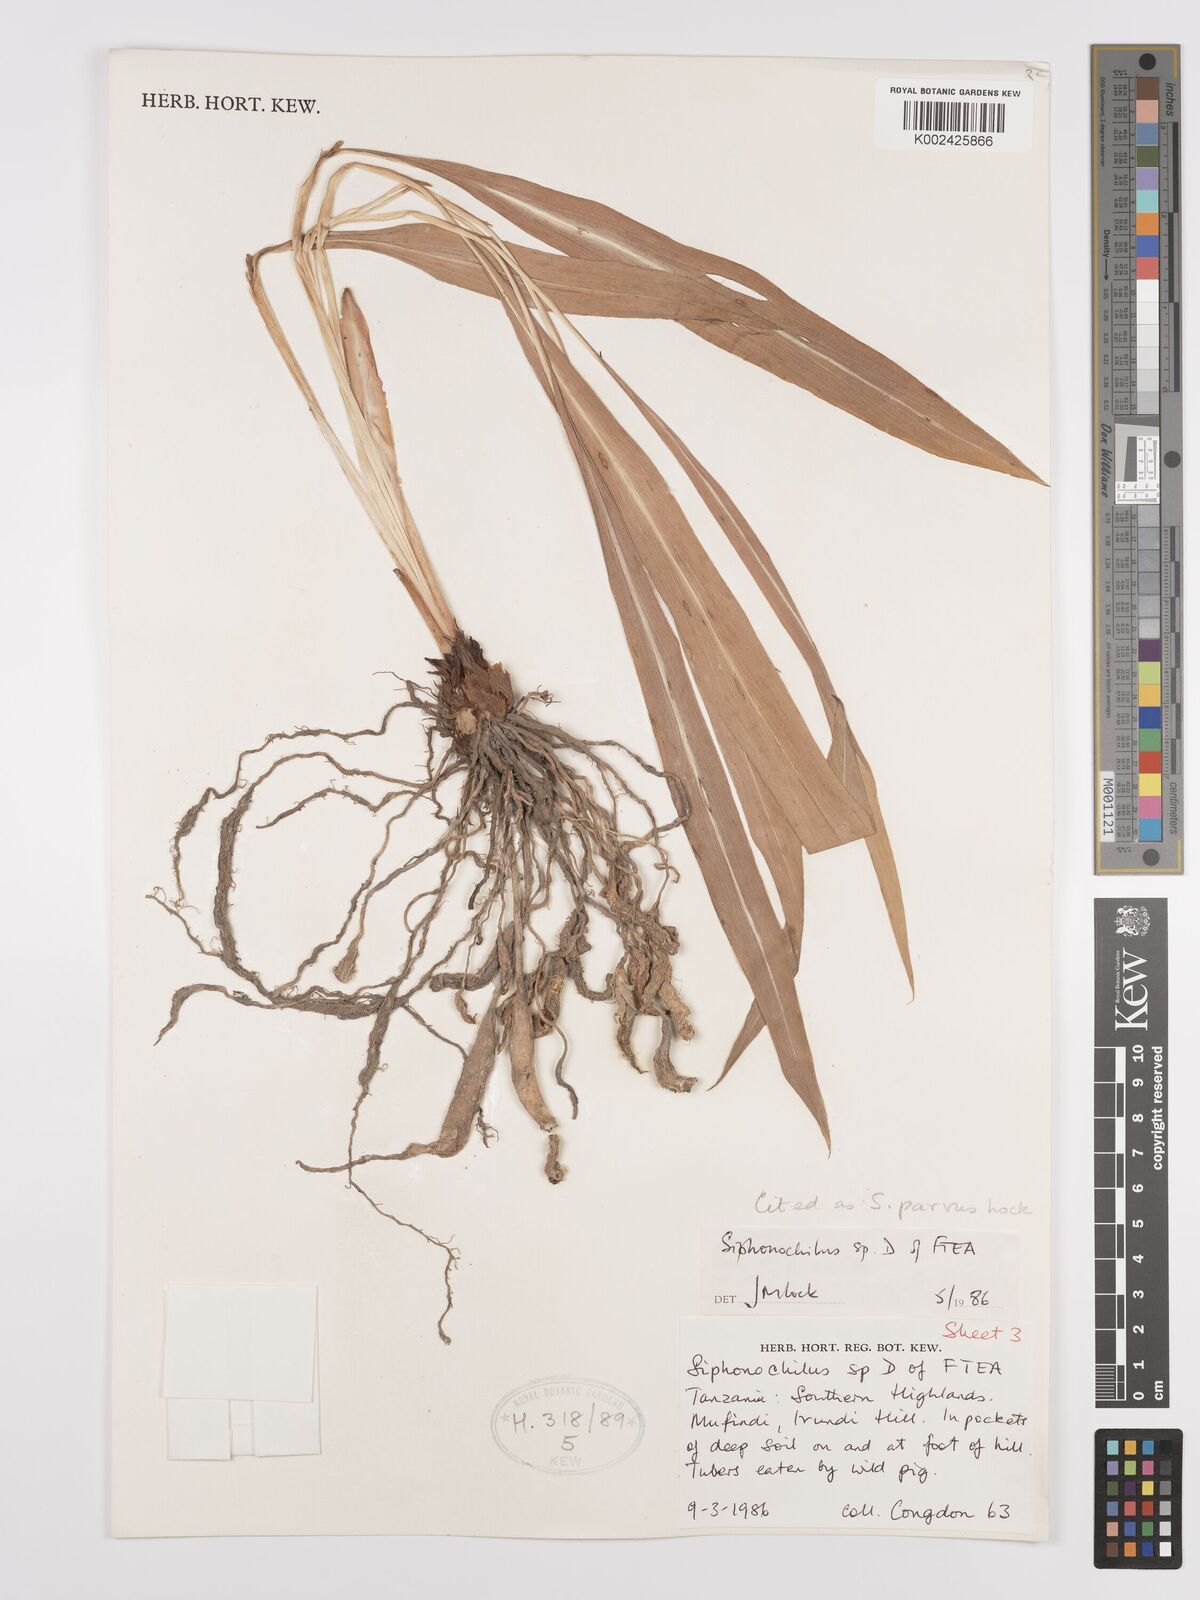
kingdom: Plantae
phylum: Tracheophyta
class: Liliopsida
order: Zingiberales
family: Zingiberaceae
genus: Siphonochilus
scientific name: Siphonochilus parvus
